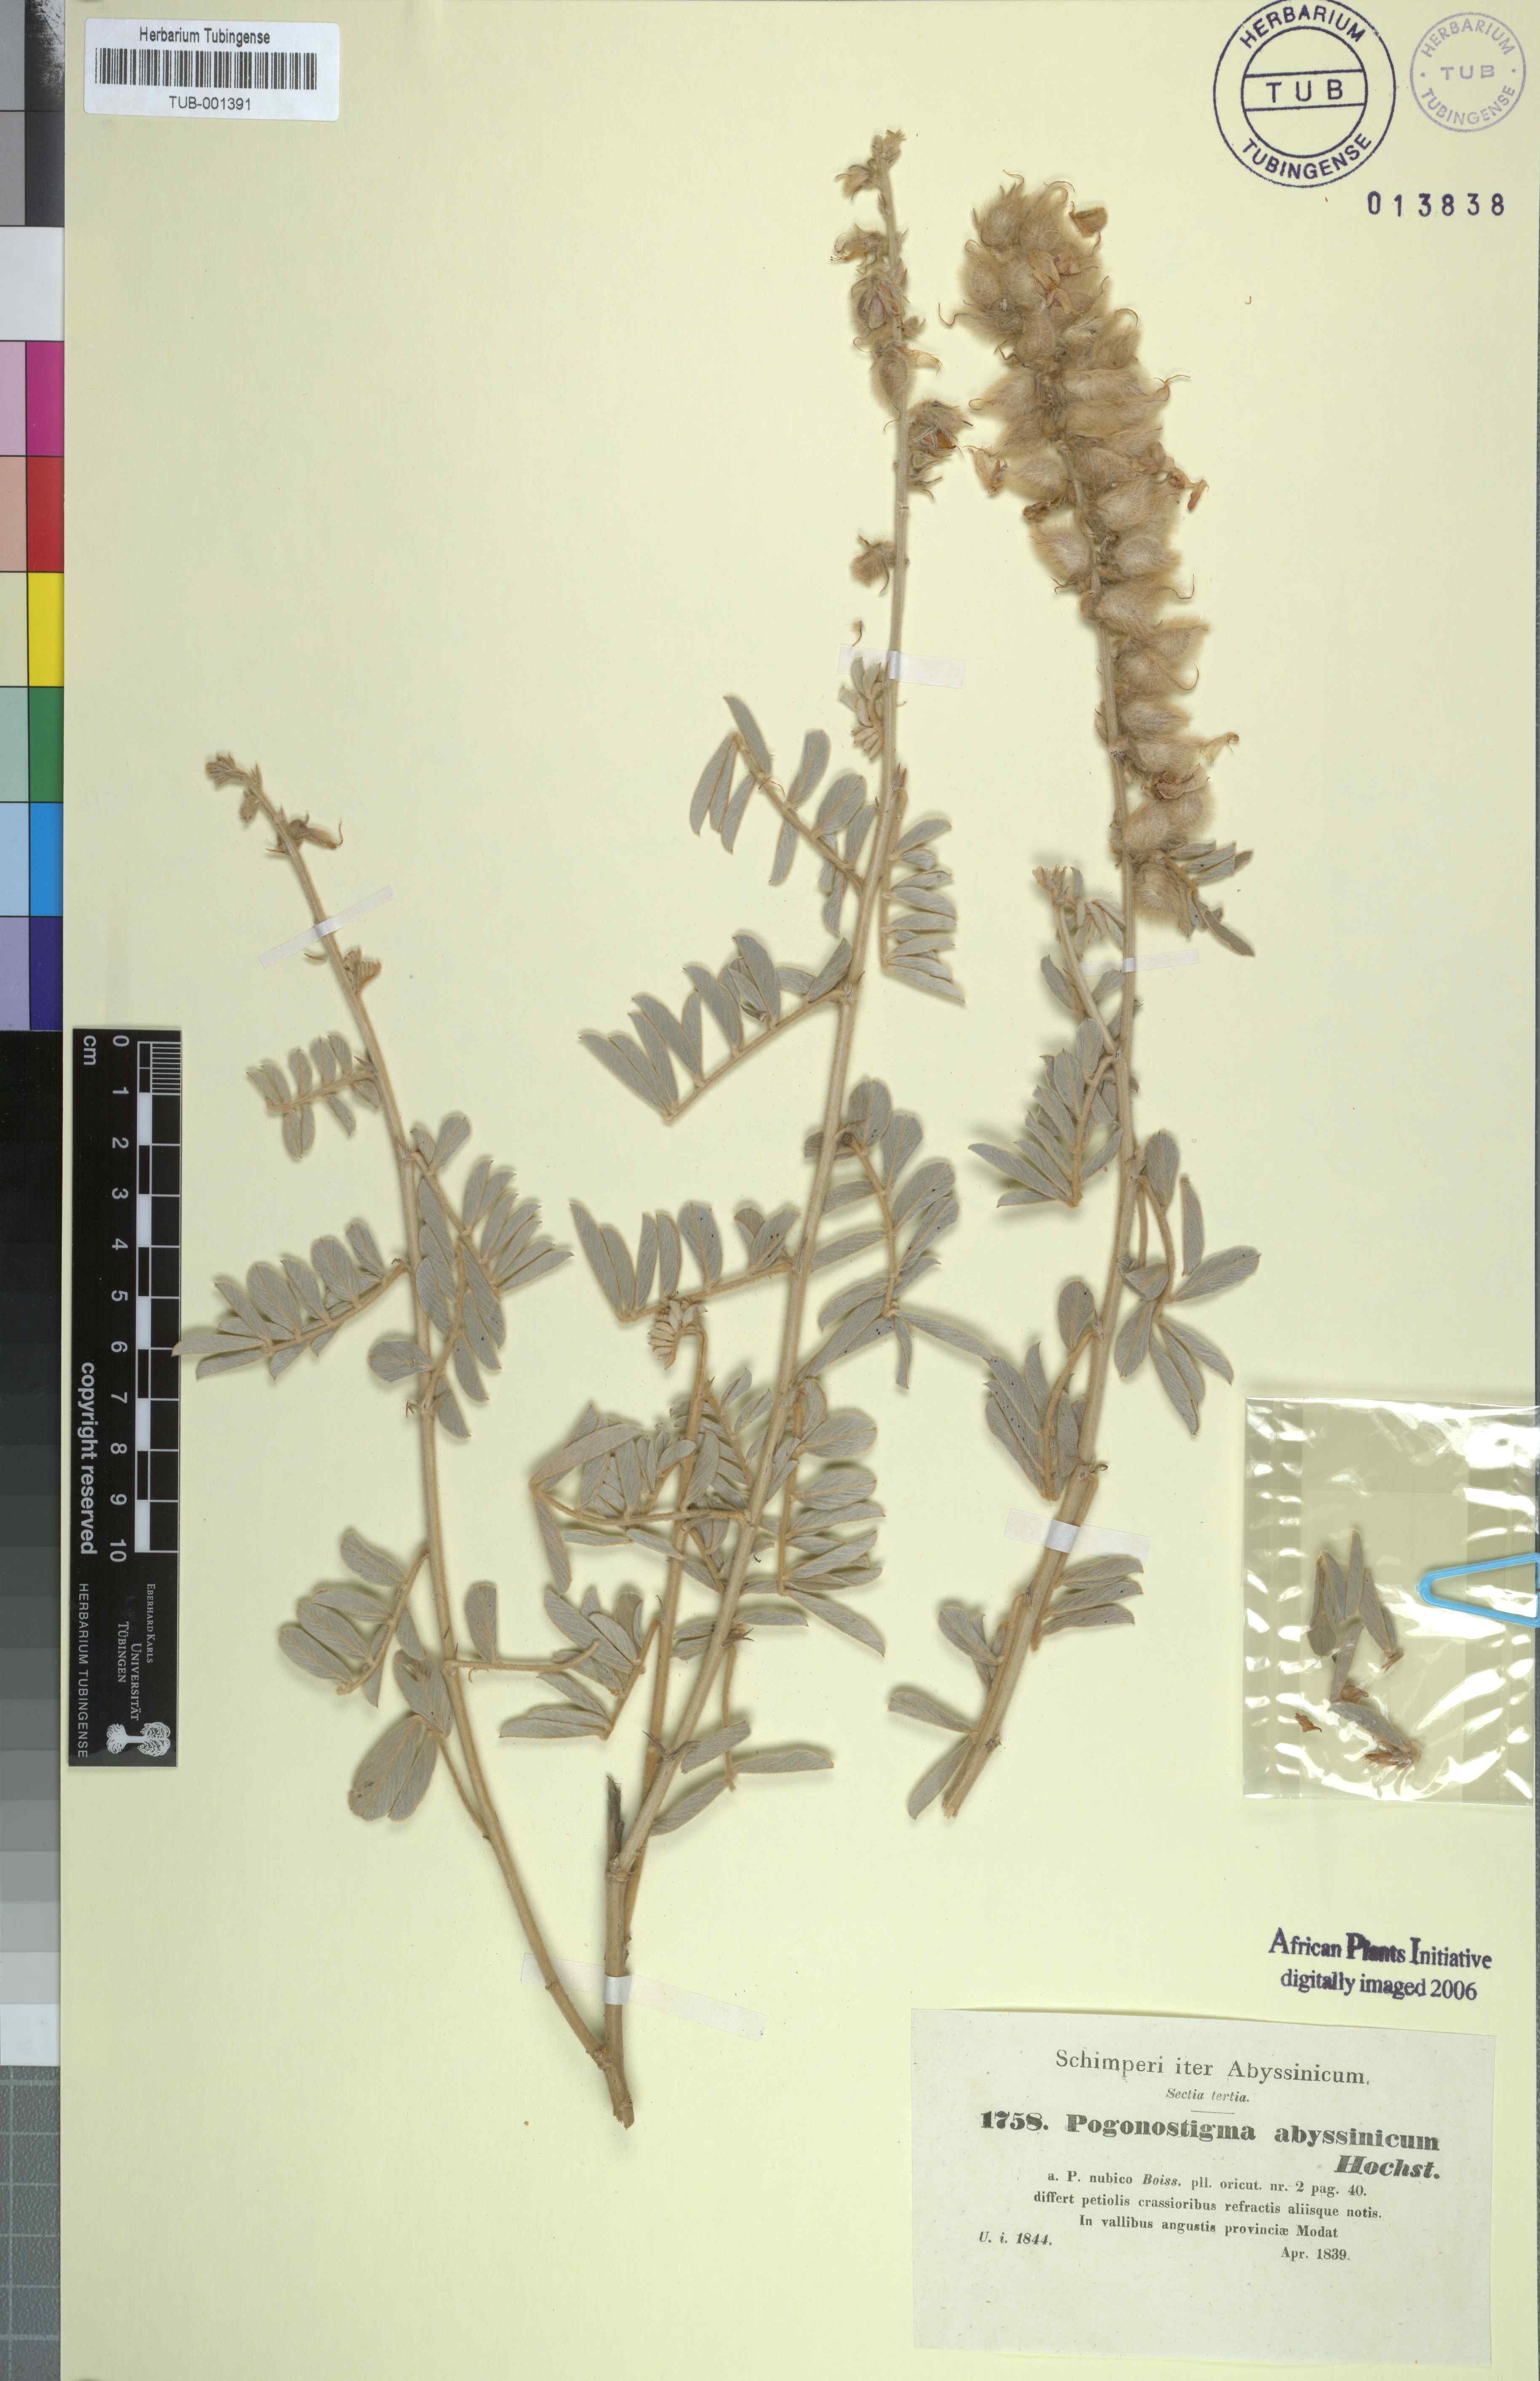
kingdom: Plantae
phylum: Tracheophyta
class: Magnoliopsida
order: Fabales
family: Fabaceae
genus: Tephrosia
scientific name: Tephrosia nubica
